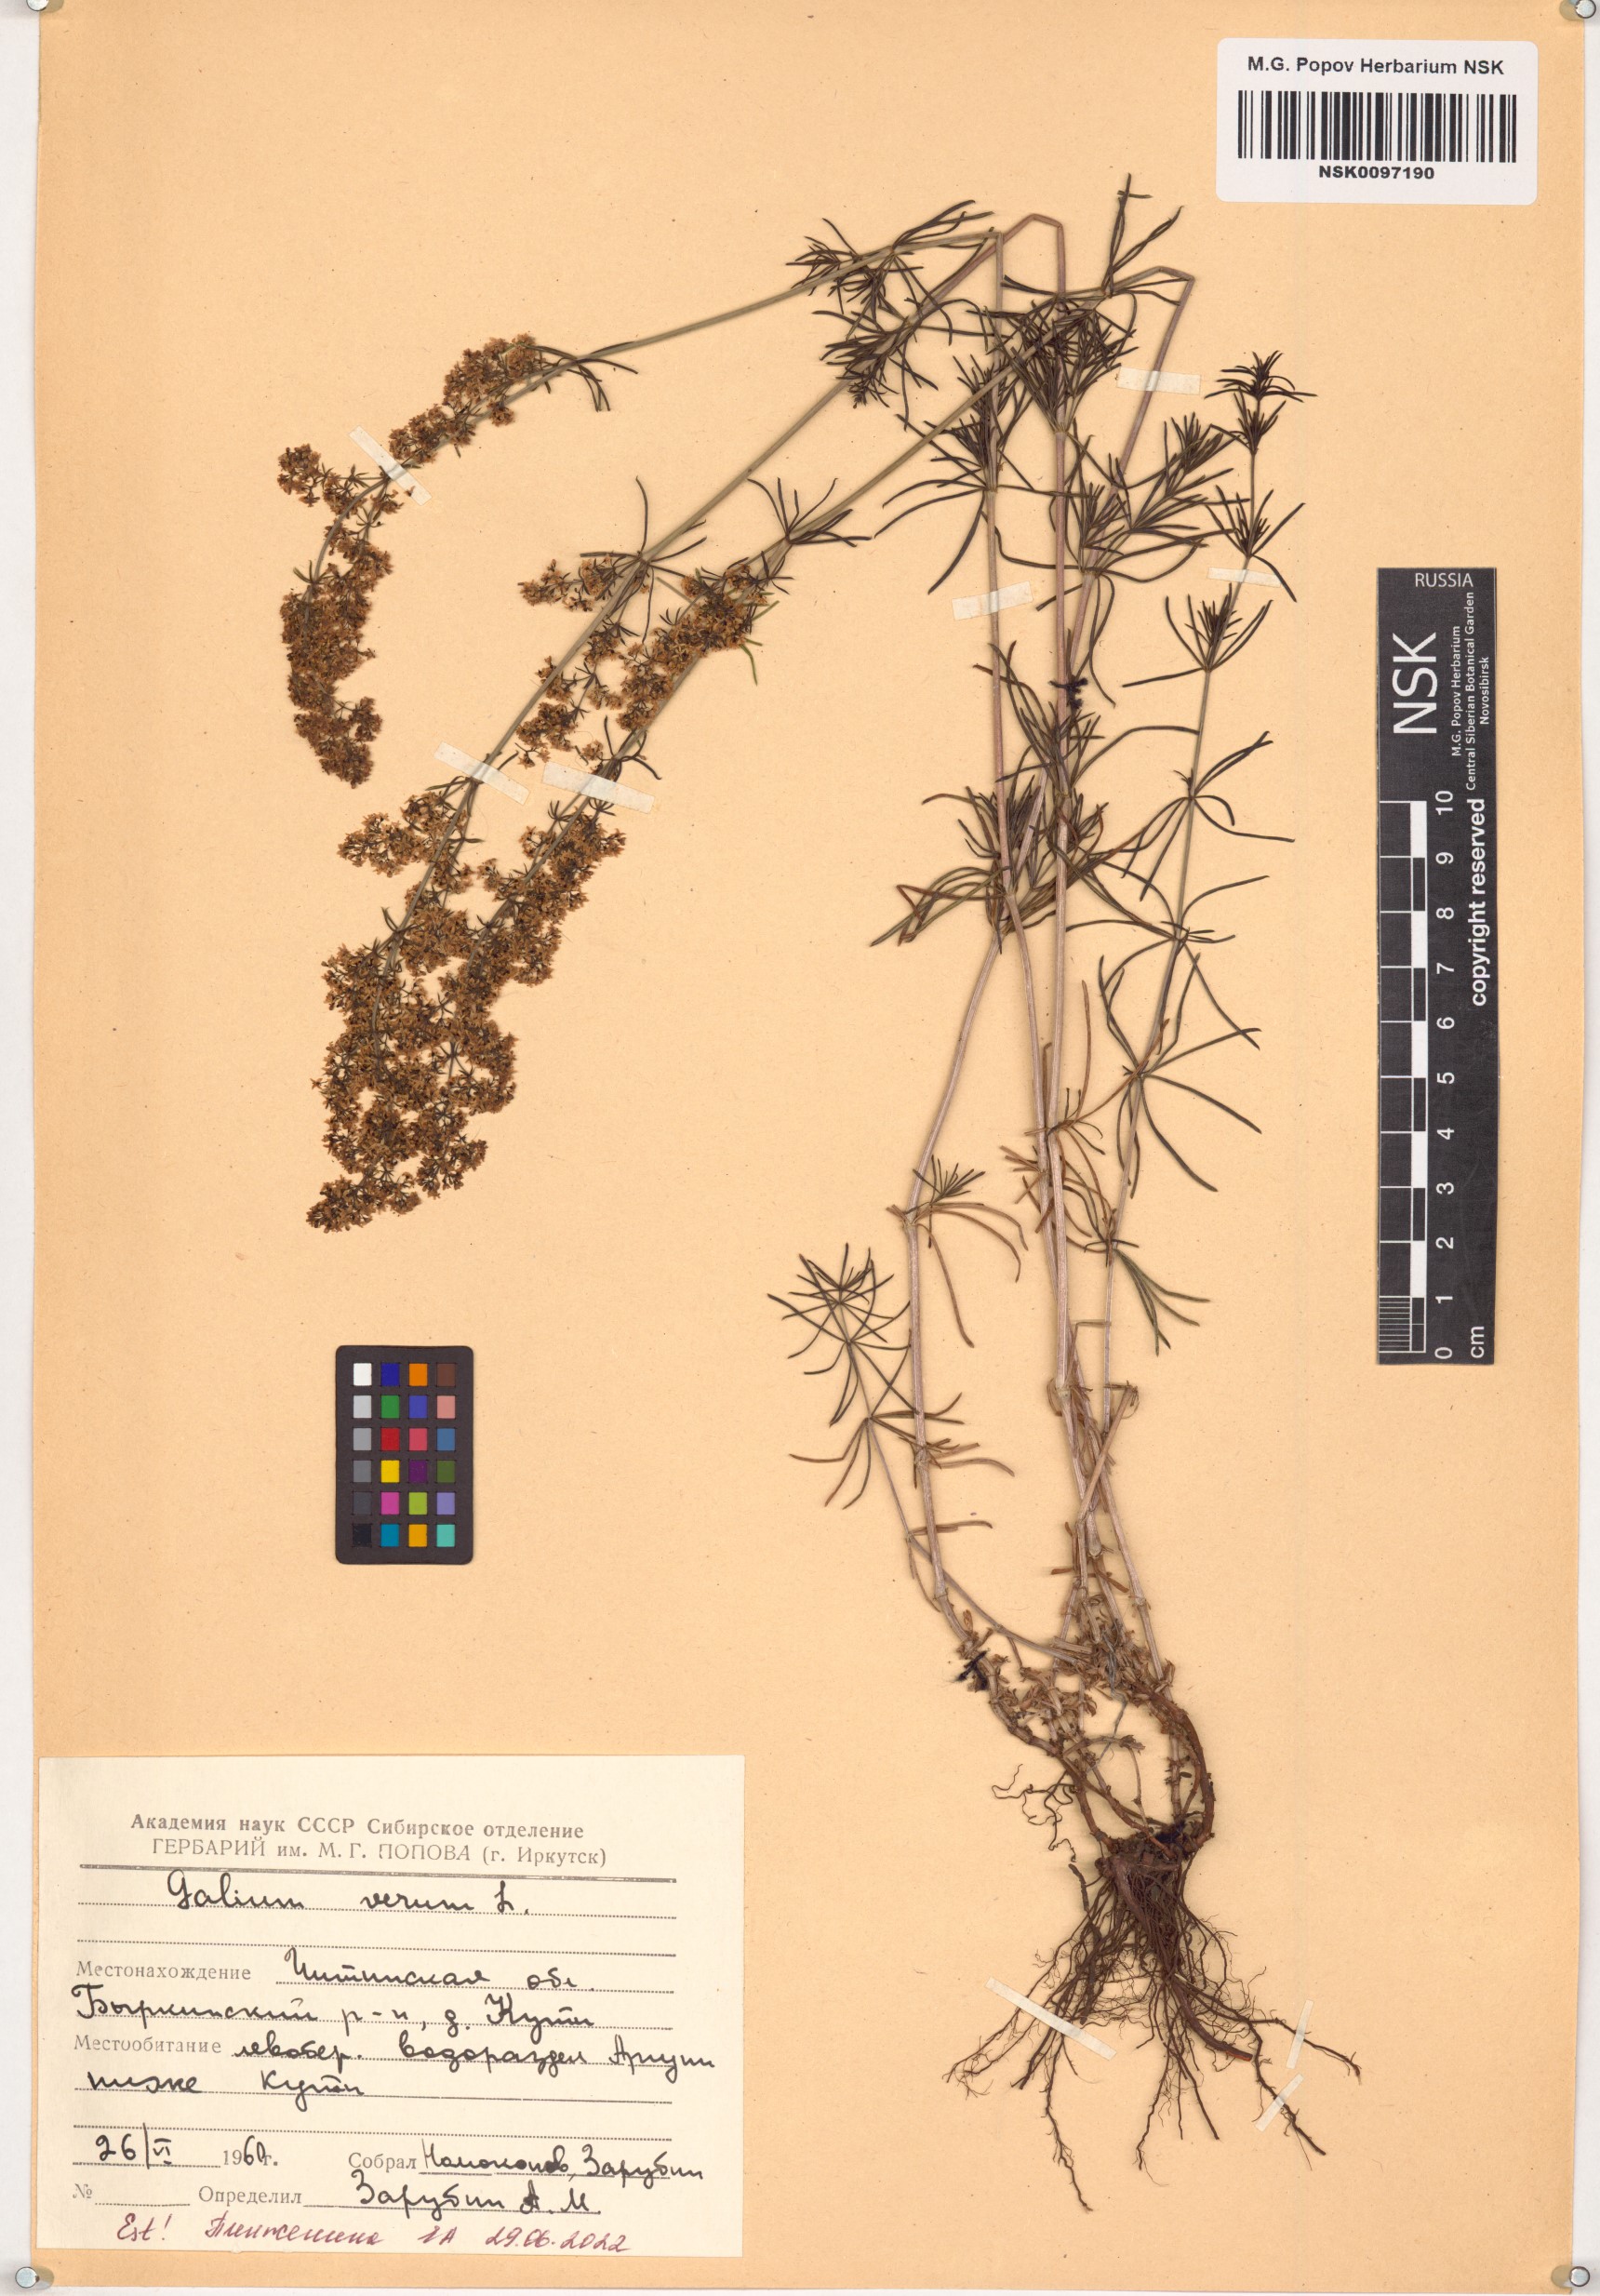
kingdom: Plantae
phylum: Tracheophyta
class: Magnoliopsida
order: Gentianales
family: Rubiaceae
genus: Galium
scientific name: Galium verum
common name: Lady's bedstraw
